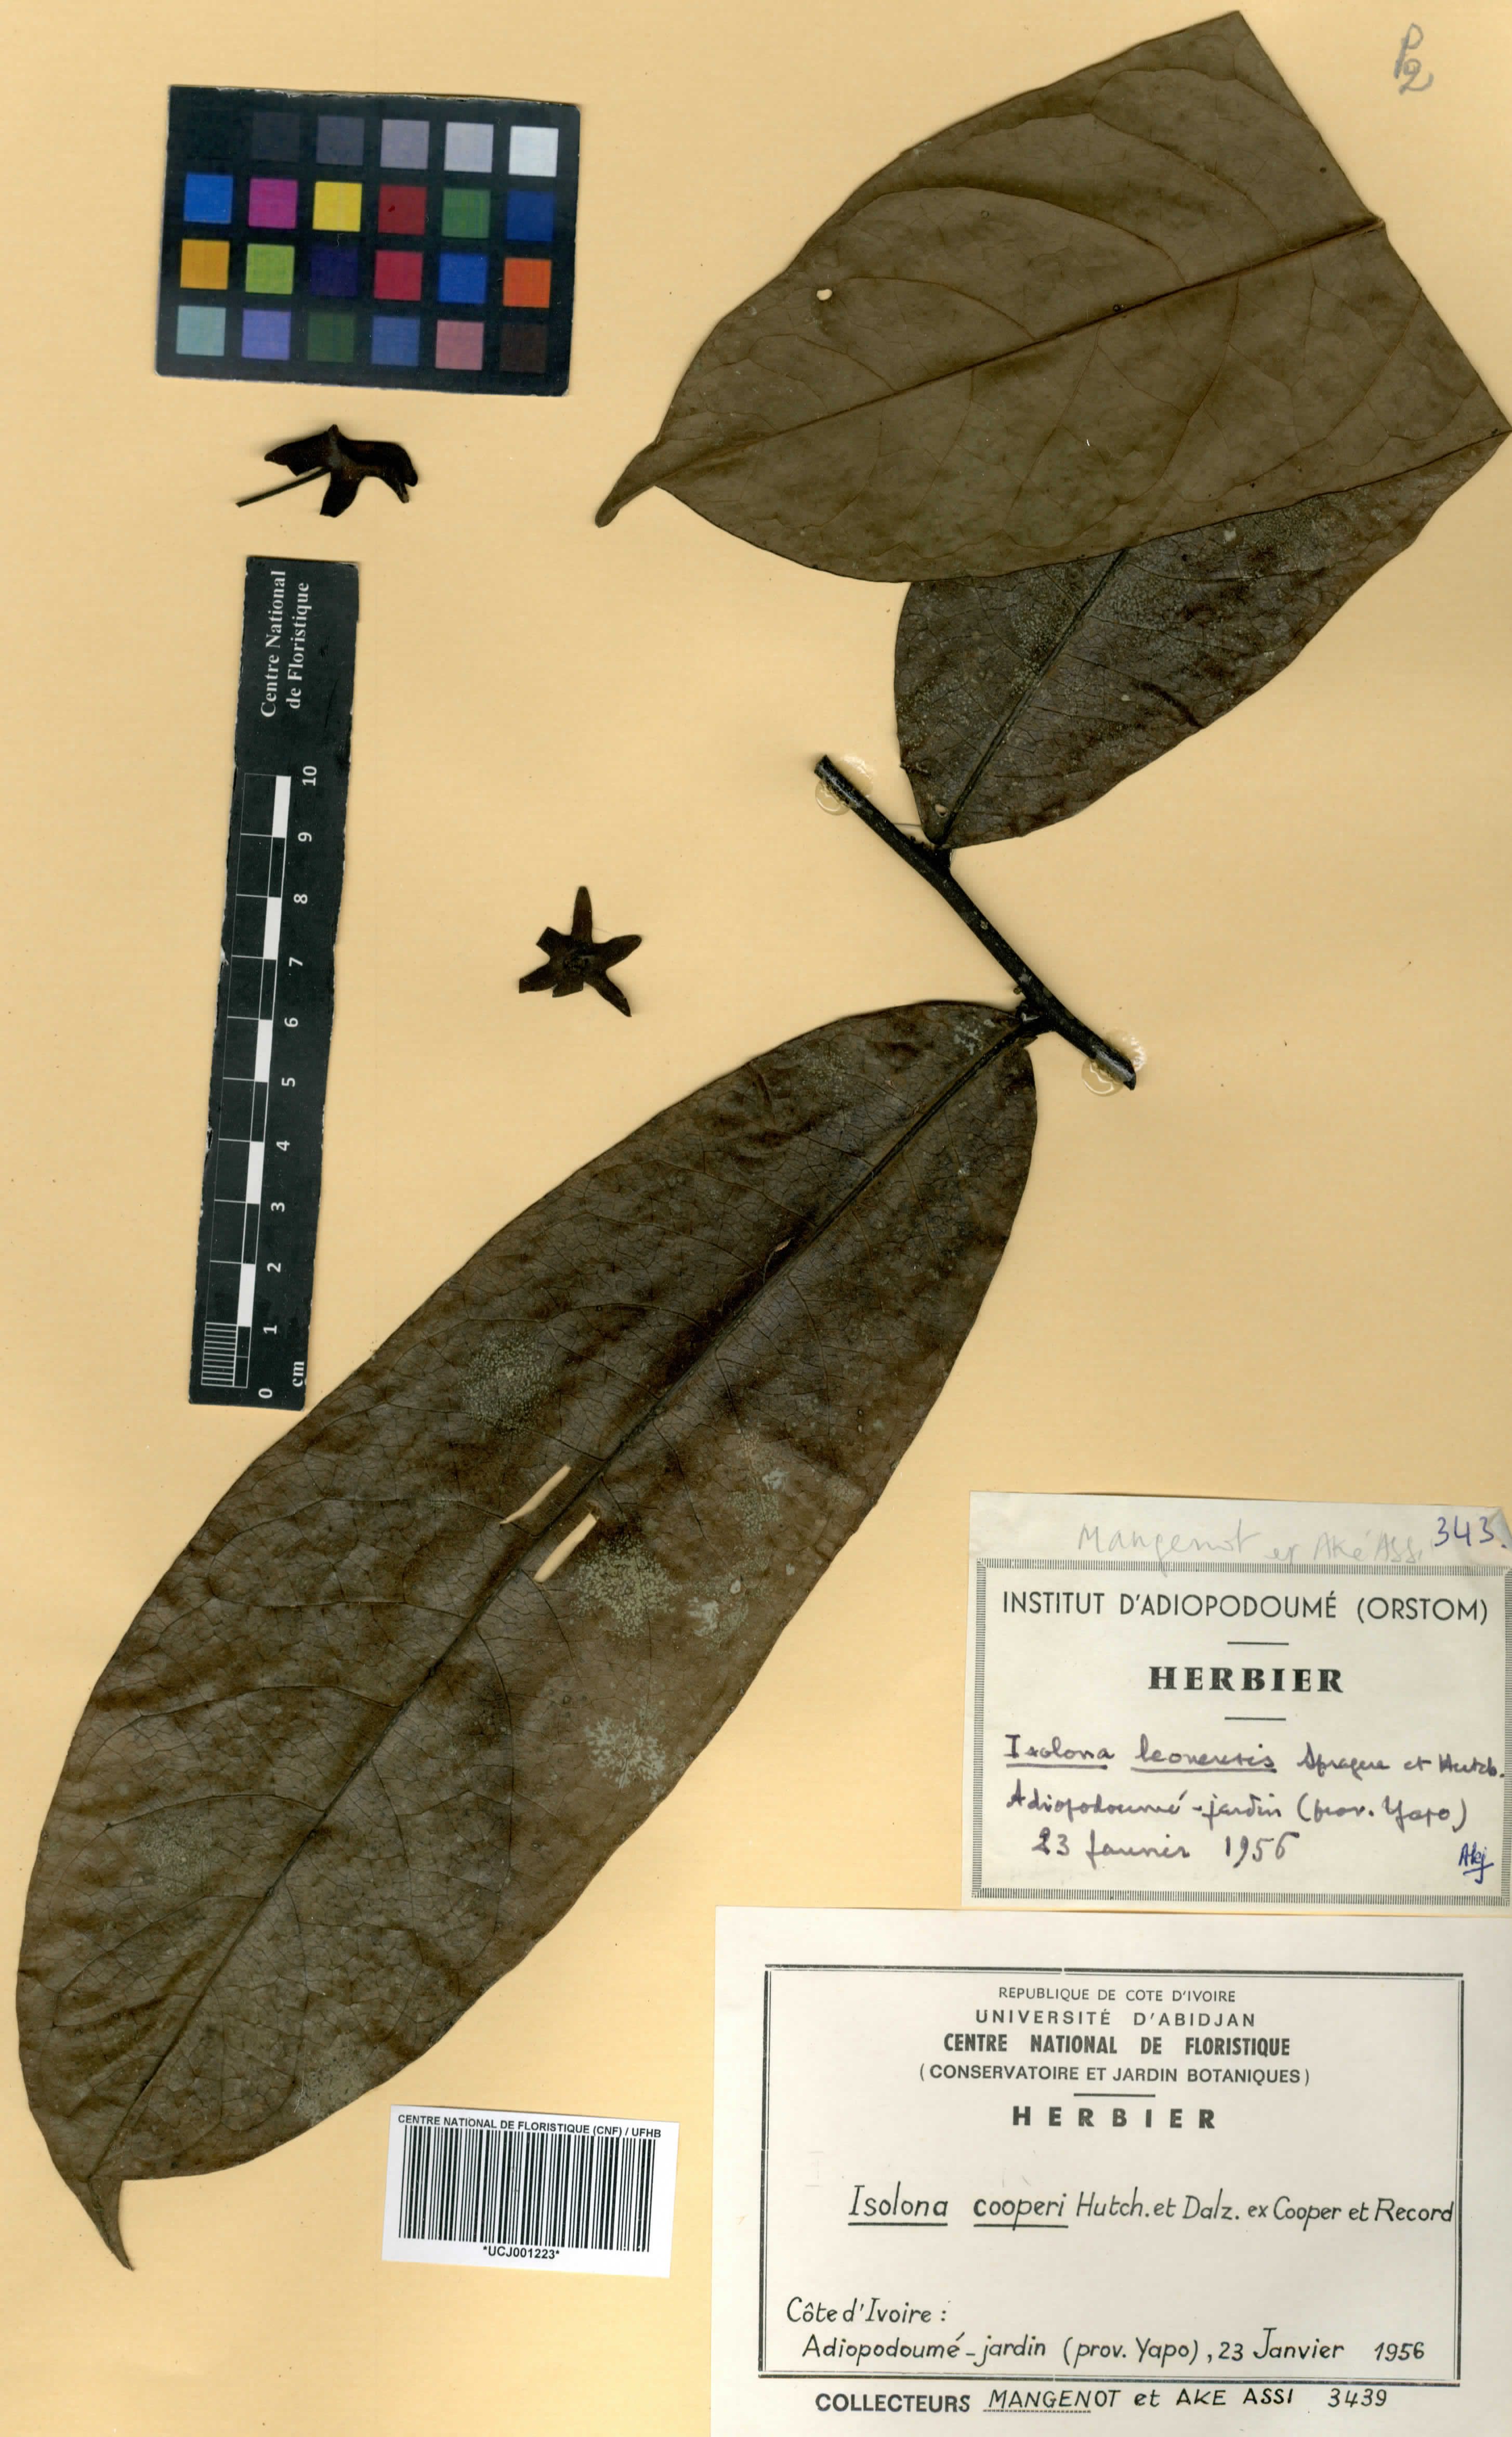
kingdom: Plantae
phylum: Tracheophyta
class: Magnoliopsida
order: Magnoliales
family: Annonaceae
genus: Isolona
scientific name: Isolona cooperi
